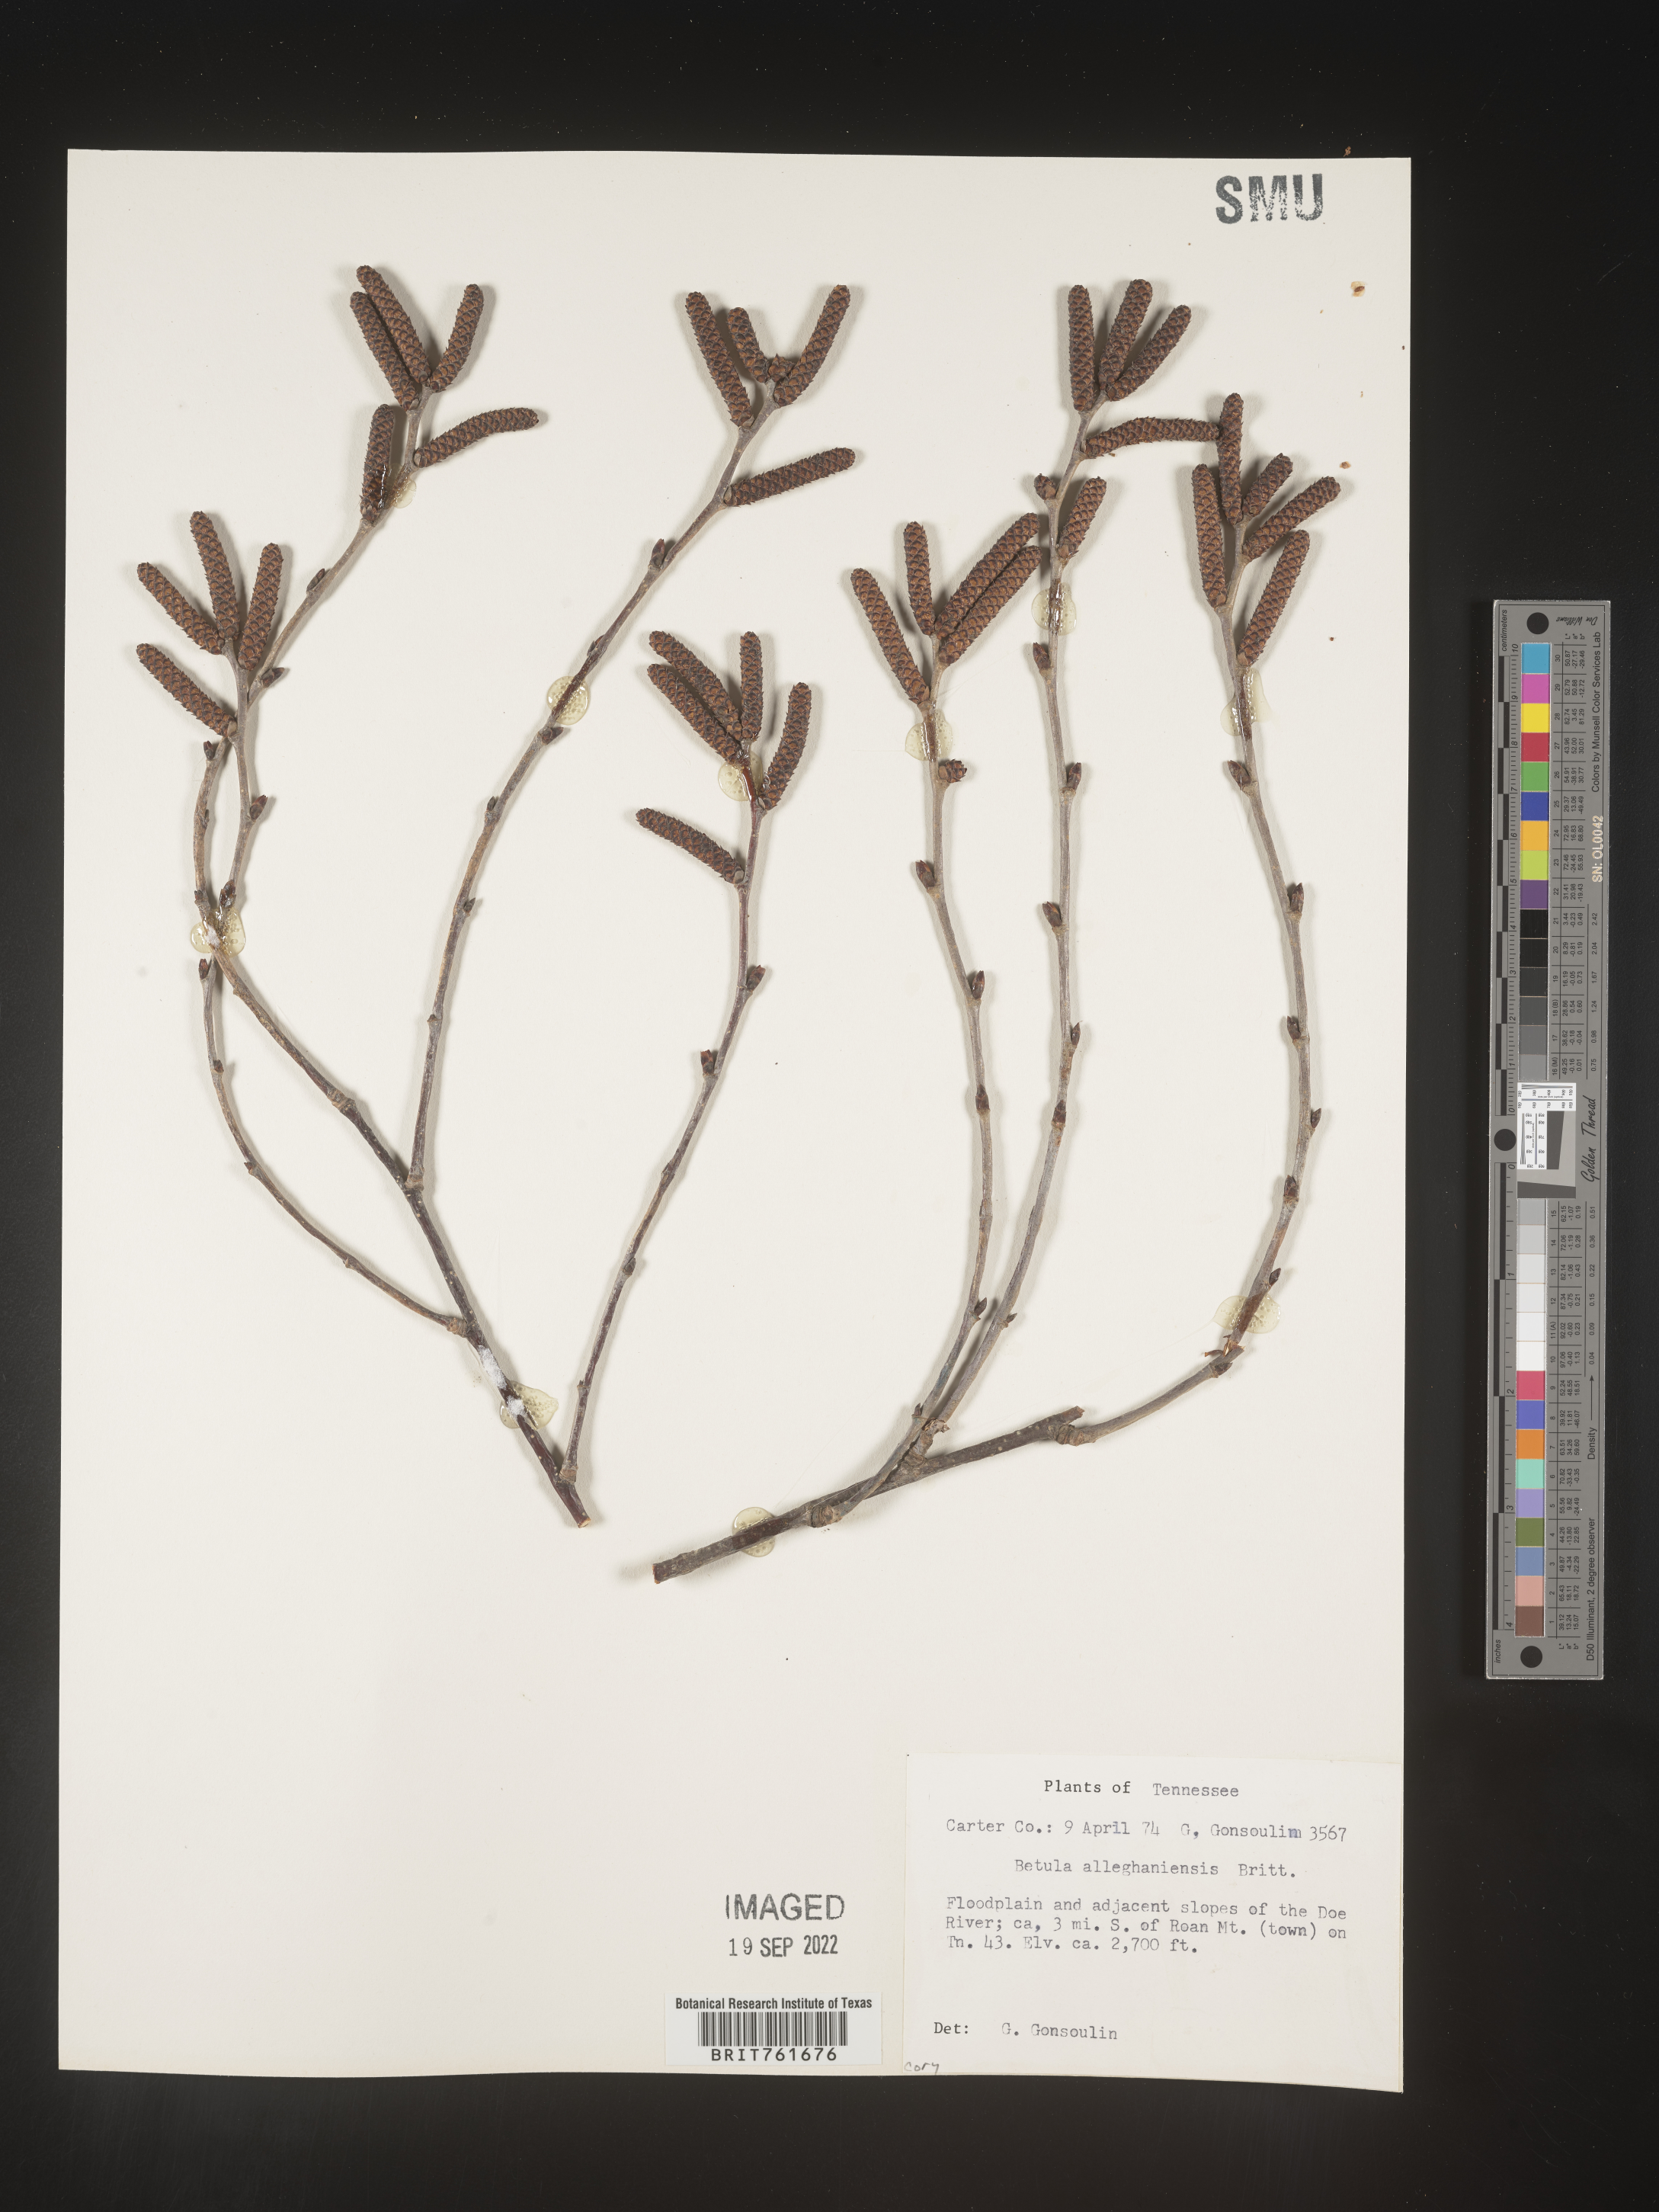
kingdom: Plantae
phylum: Tracheophyta
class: Magnoliopsida
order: Fagales
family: Betulaceae
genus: Betula
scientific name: Betula alleghaniensis
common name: Yellow birch
